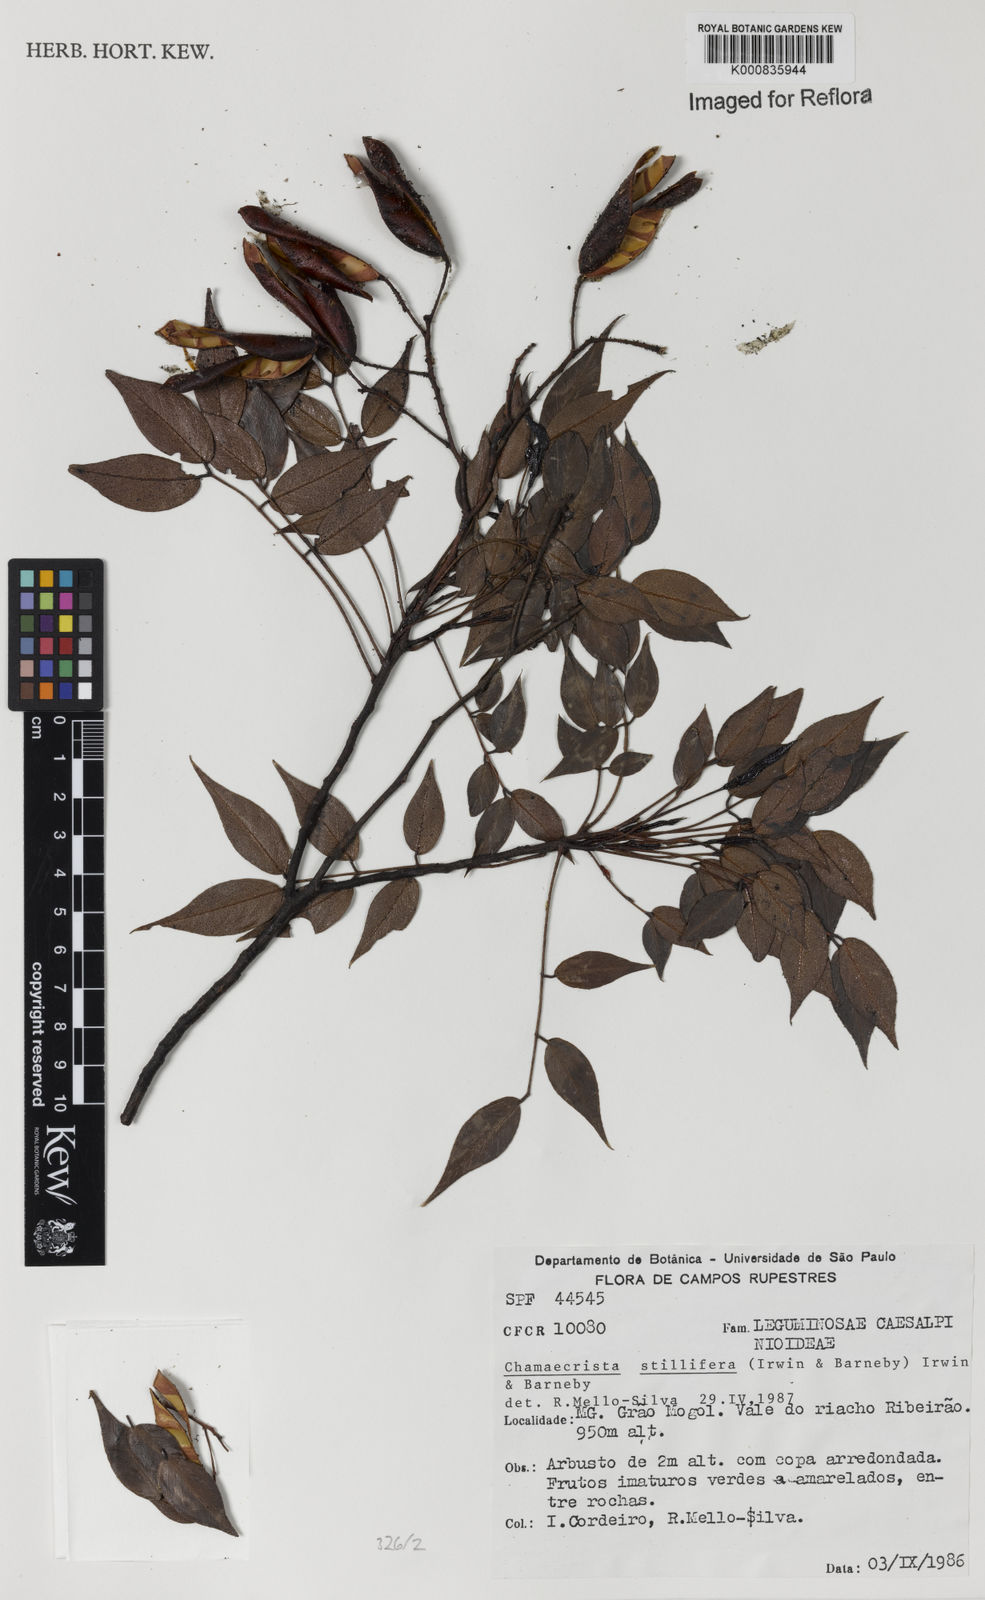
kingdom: Plantae
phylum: Tracheophyta
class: Magnoliopsida
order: Fabales
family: Fabaceae
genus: Chamaecrista
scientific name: Chamaecrista stillifera
